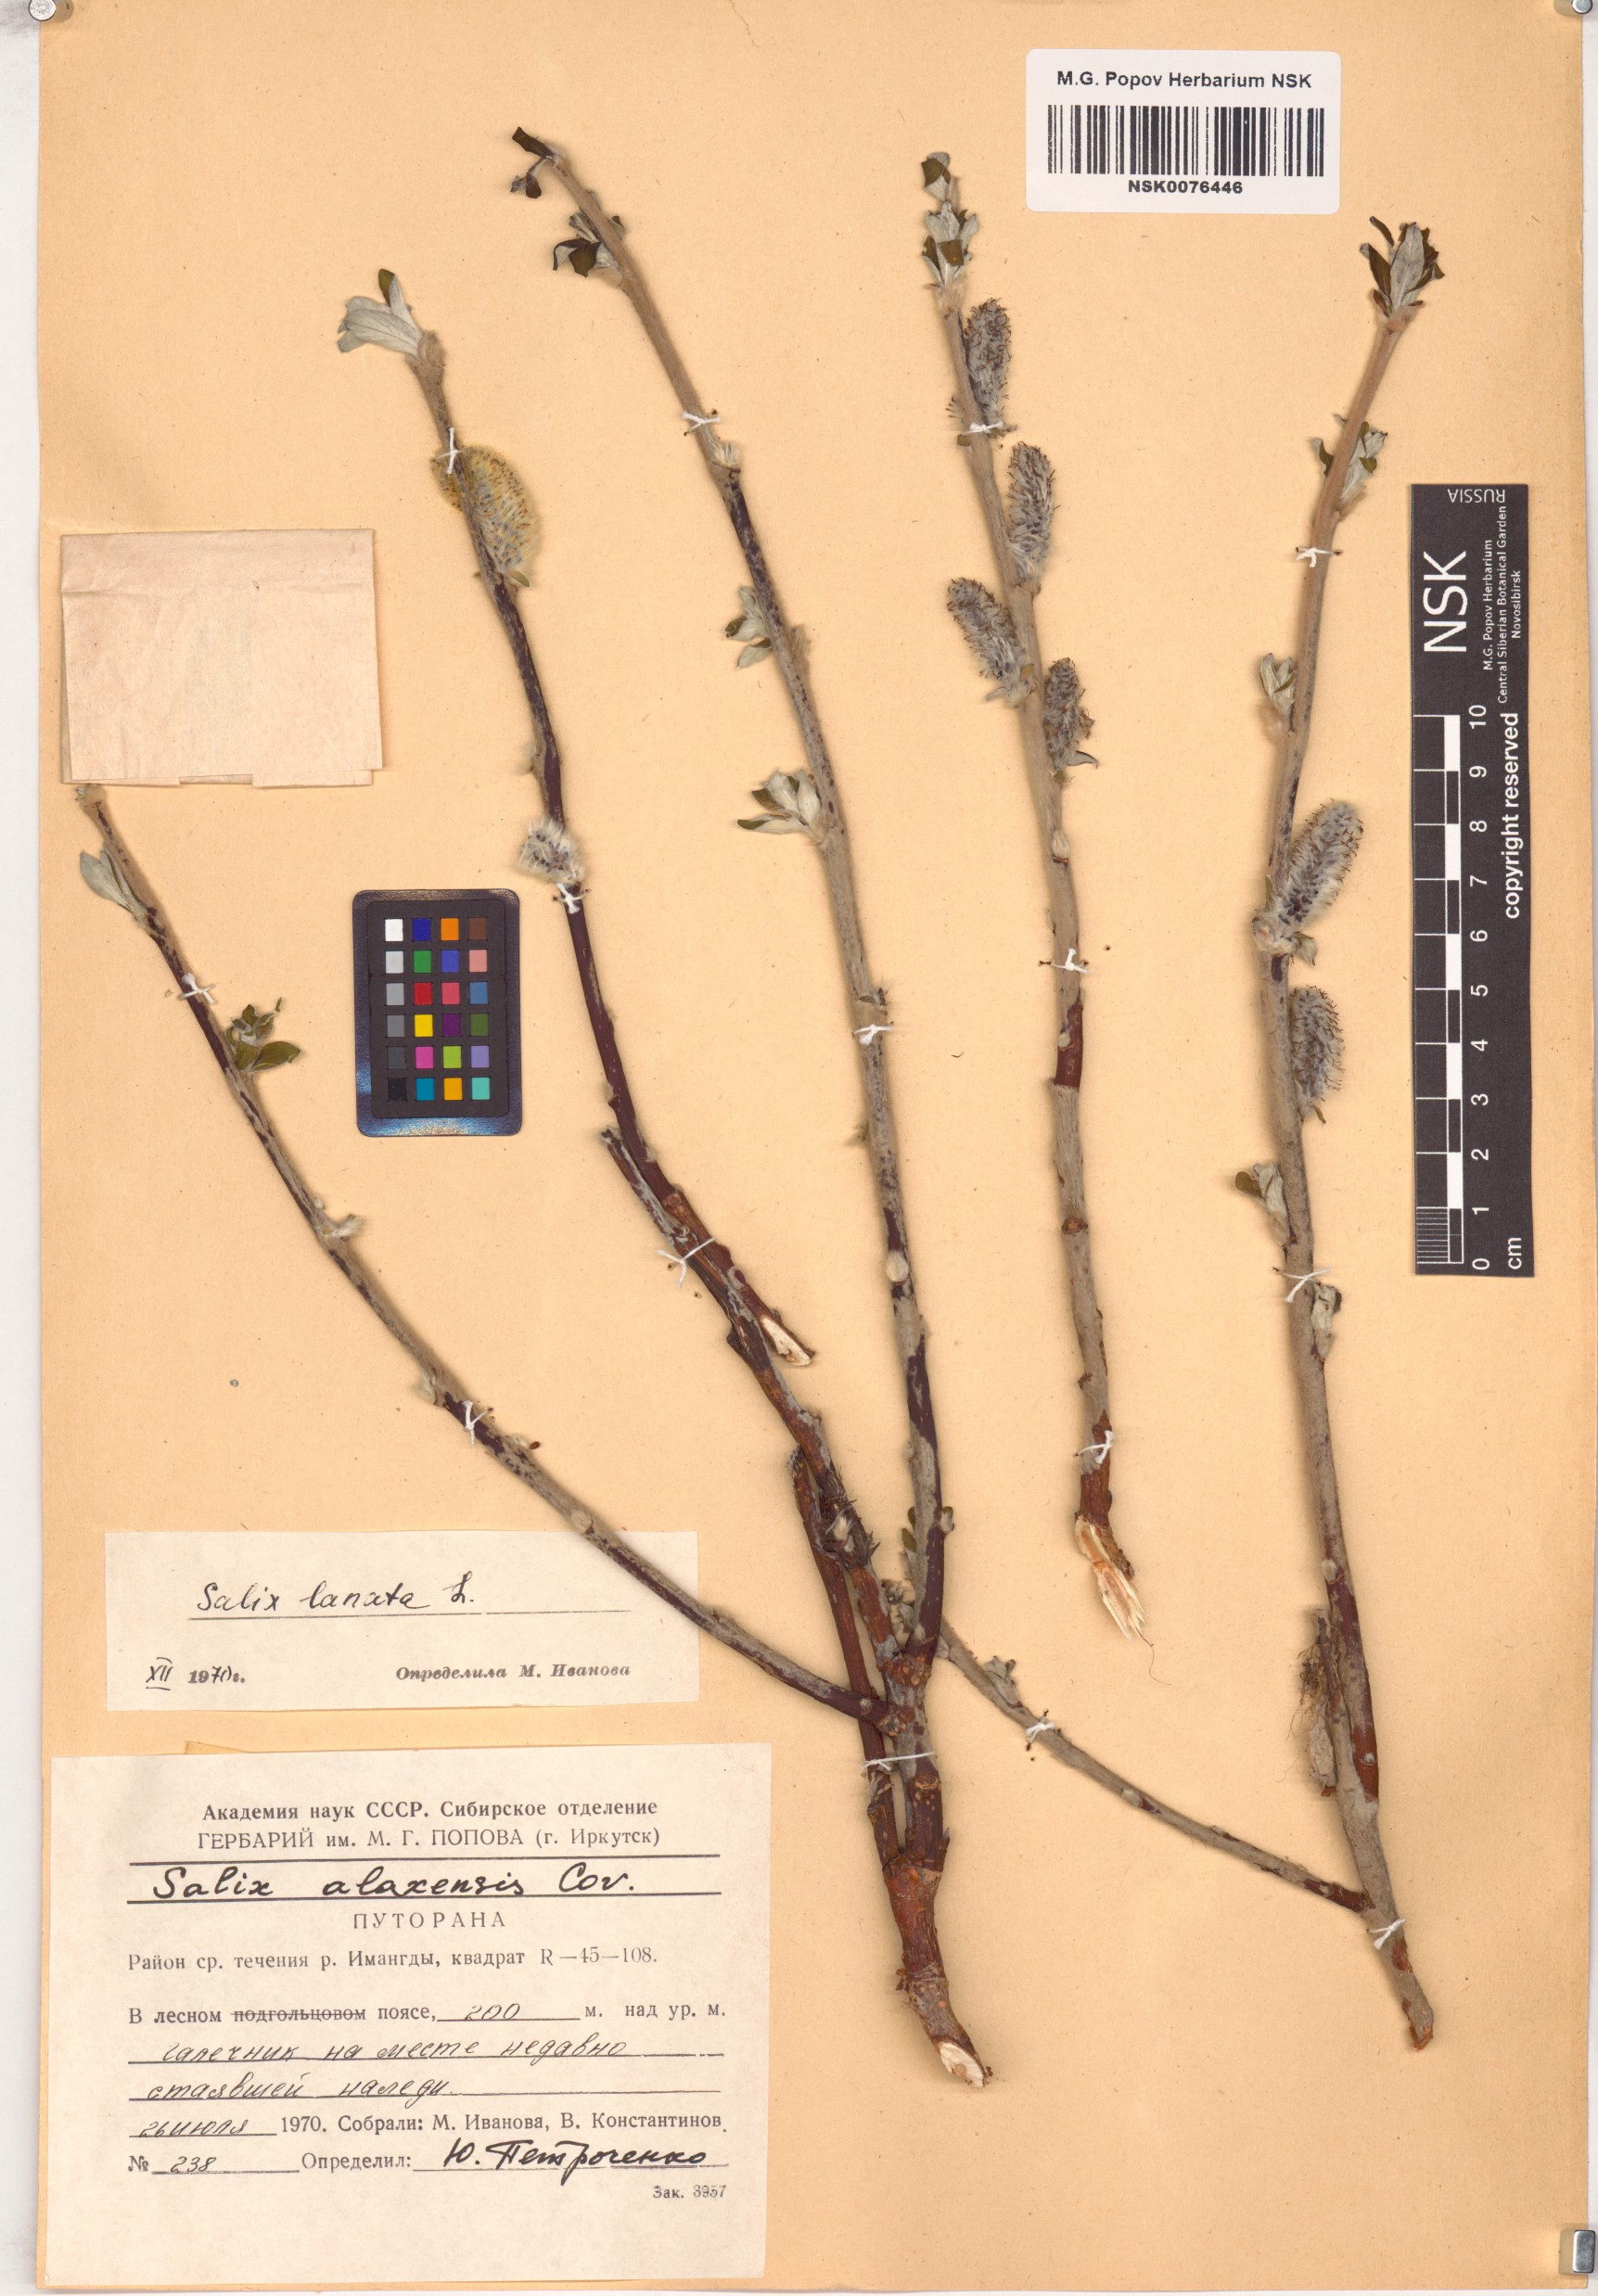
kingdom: Plantae
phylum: Tracheophyta
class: Magnoliopsida
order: Malpighiales
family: Salicaceae
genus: Salix
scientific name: Salix lanata
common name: Woolly willow
